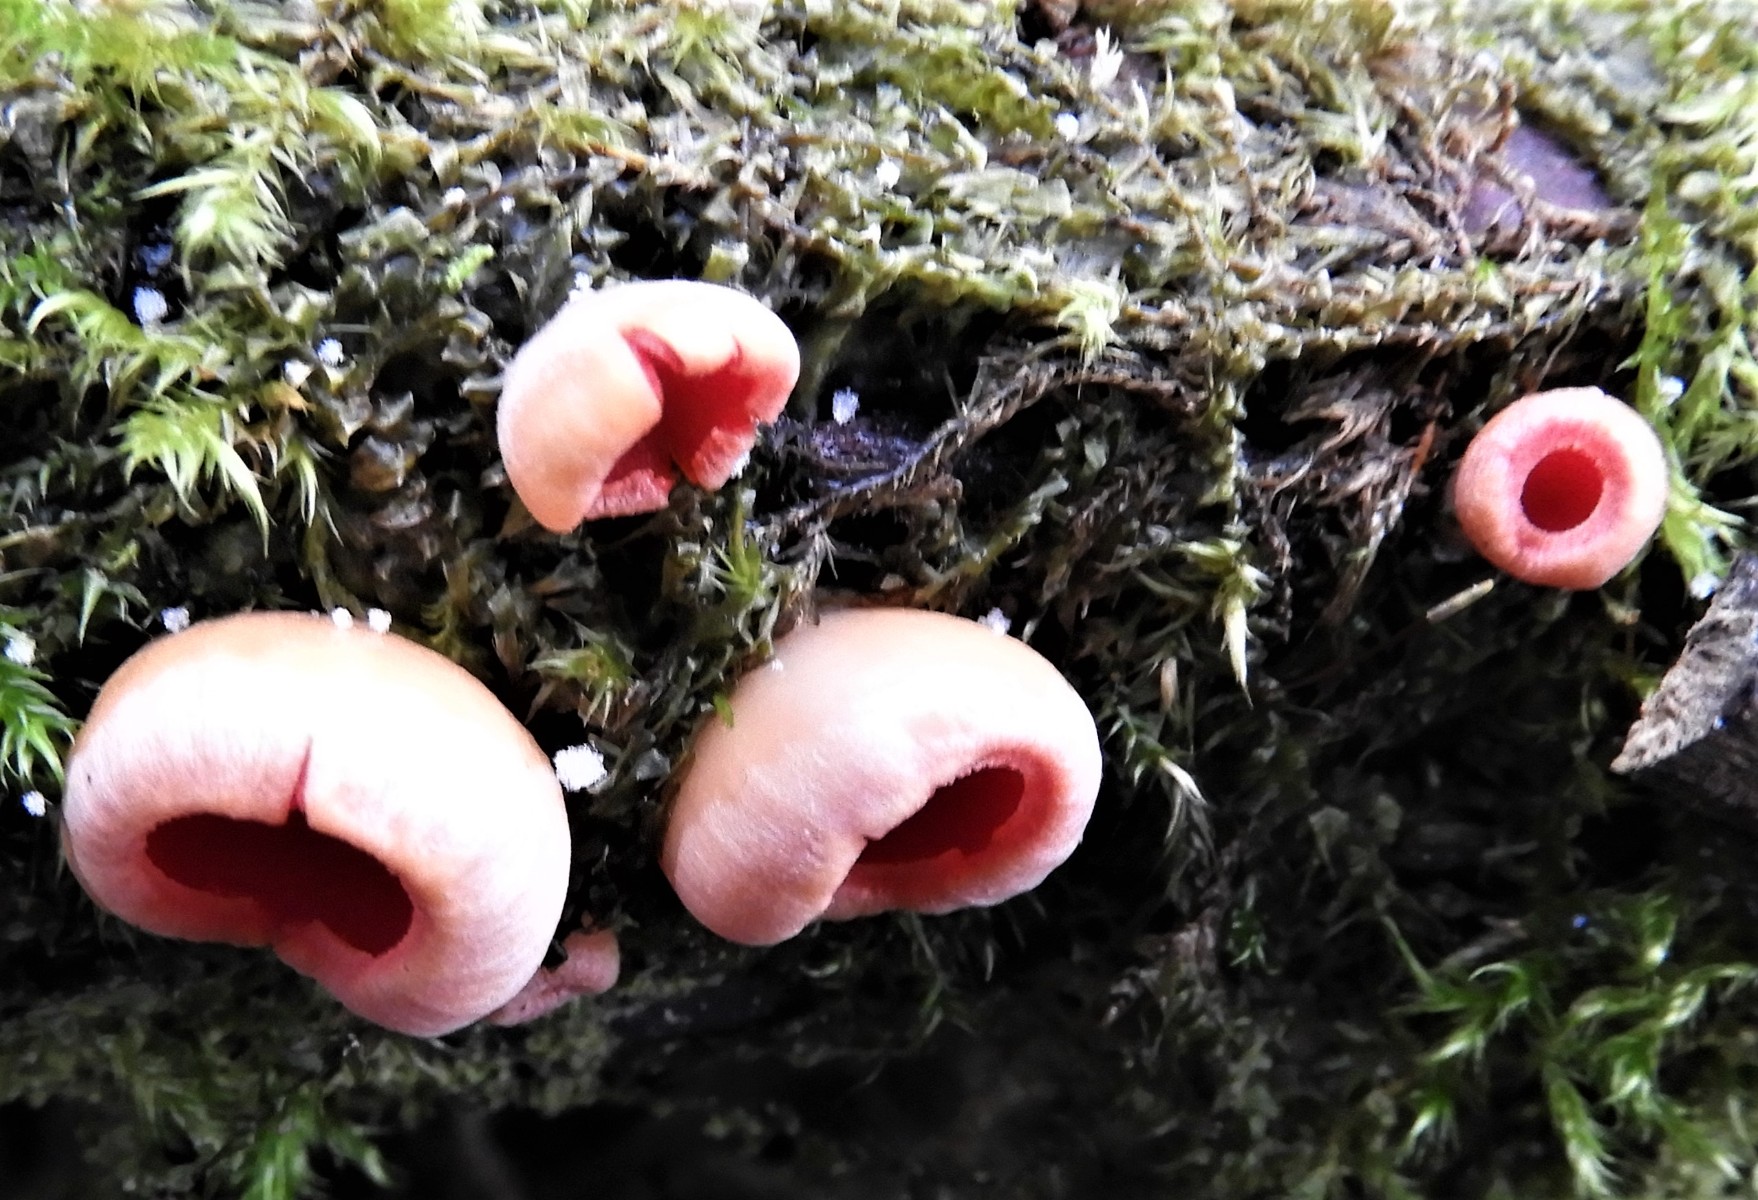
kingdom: Fungi
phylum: Ascomycota
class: Pezizomycetes
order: Pezizales
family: Sarcoscyphaceae
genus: Sarcoscypha
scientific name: Sarcoscypha austriaca
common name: krølhåret pragtbæger
